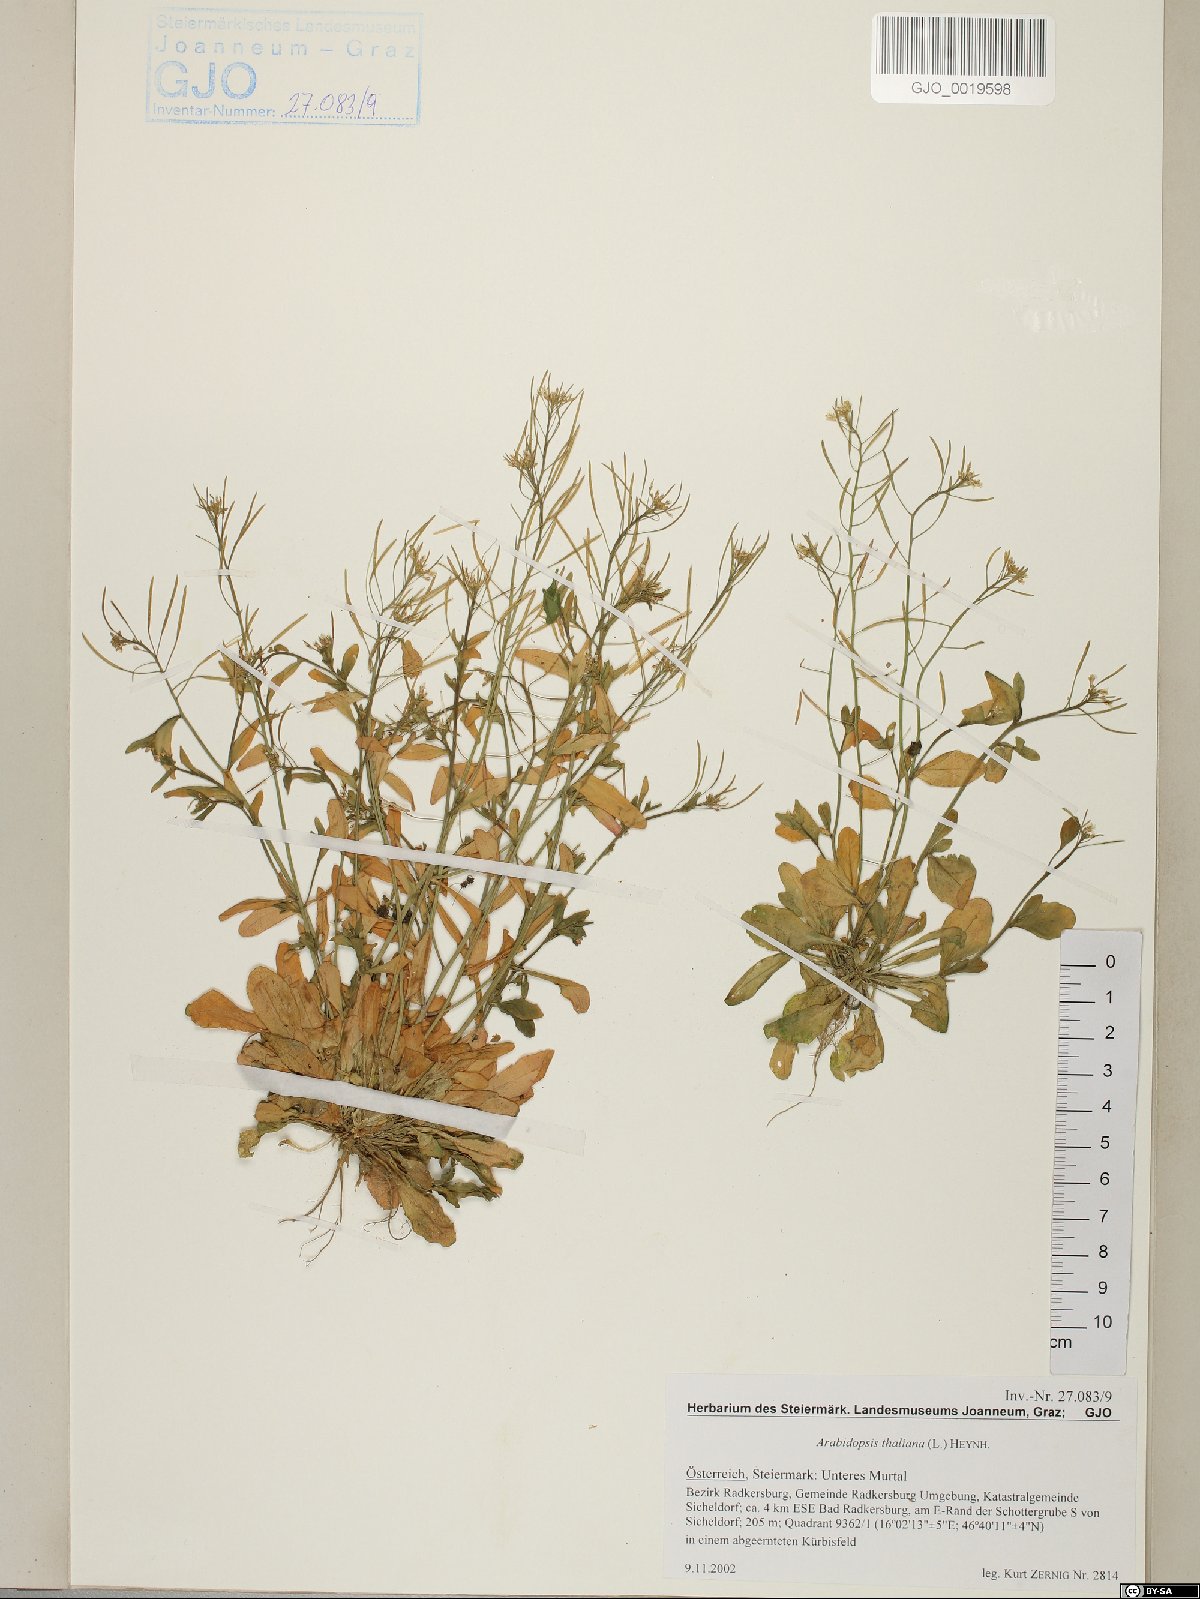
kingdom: Plantae
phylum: Tracheophyta
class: Magnoliopsida
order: Brassicales
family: Brassicaceae
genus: Arabidopsis
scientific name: Arabidopsis thaliana
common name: Thale cress
